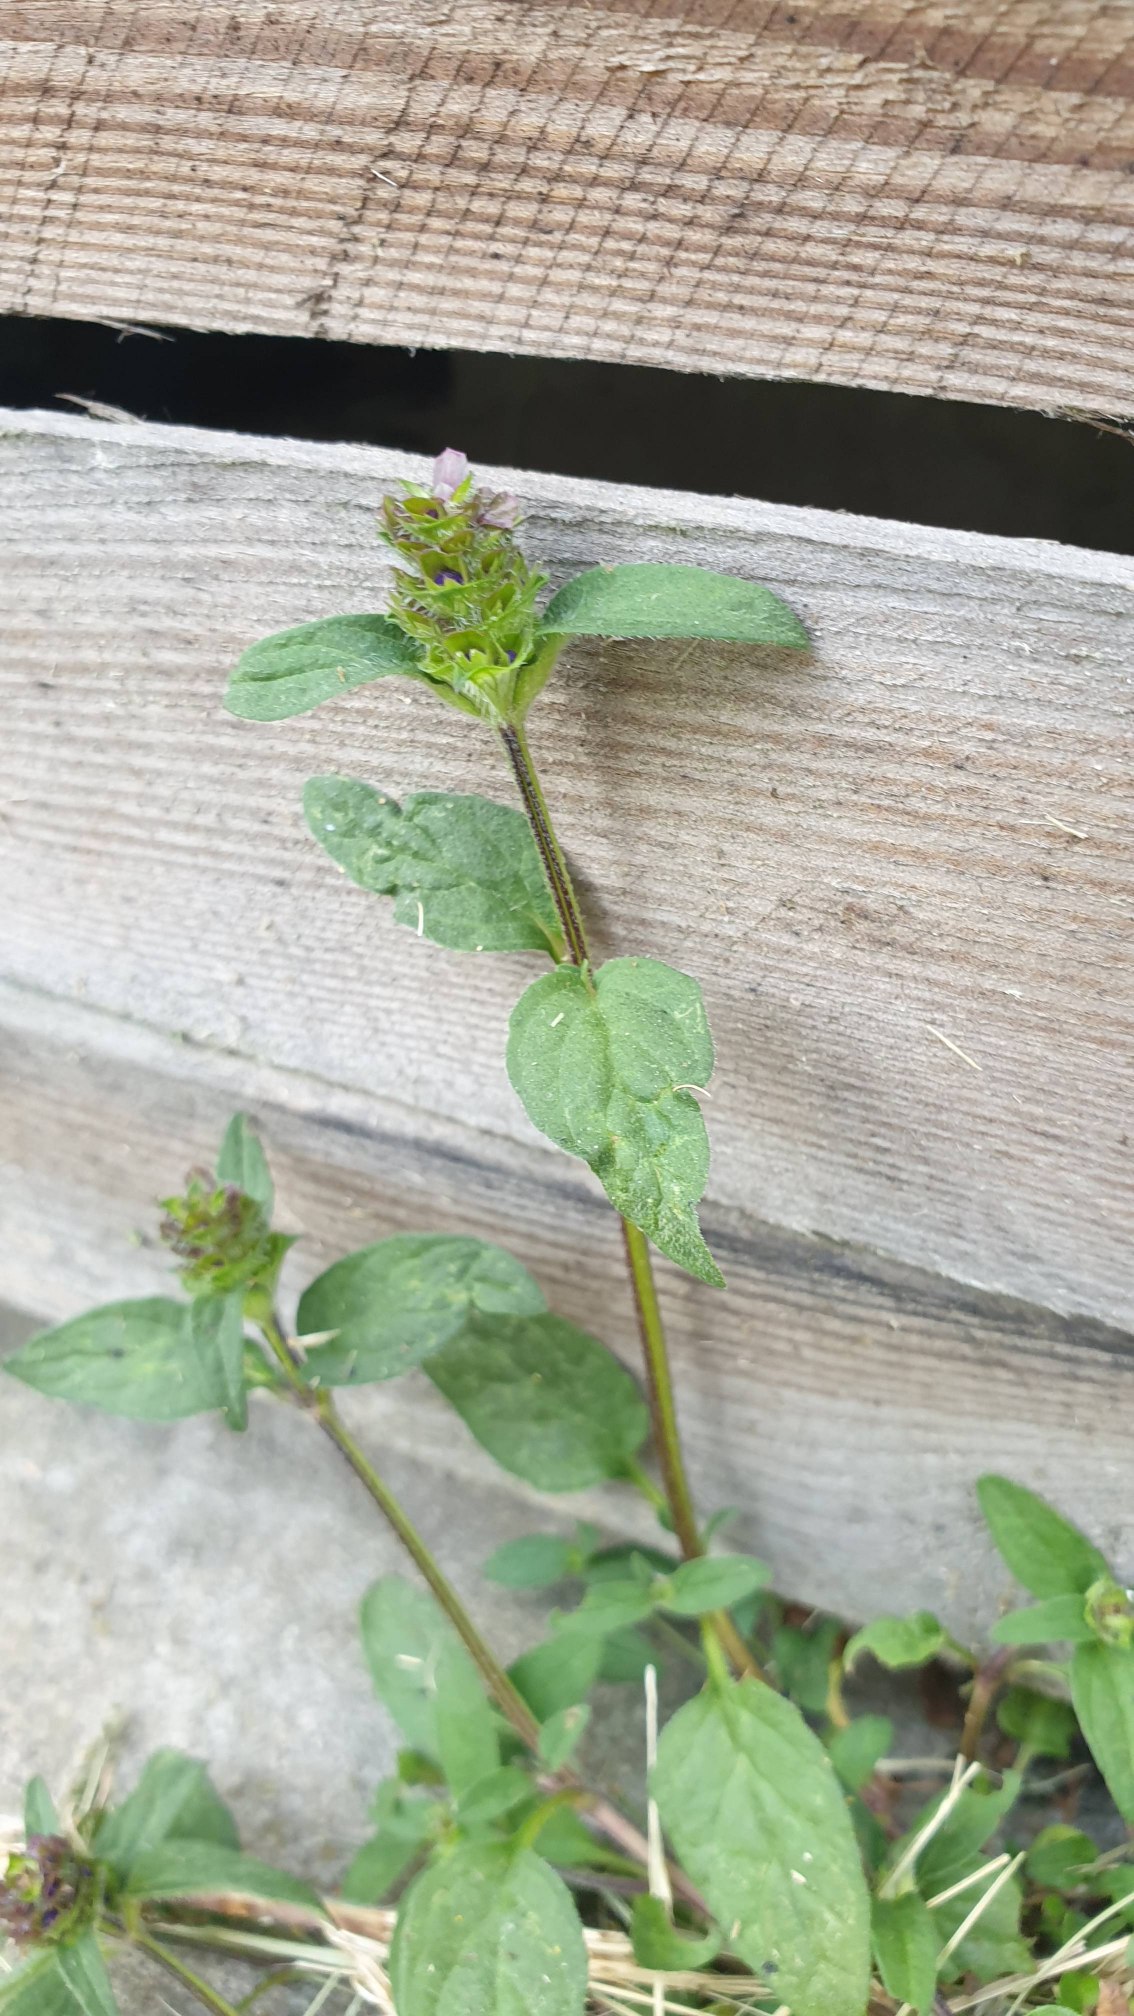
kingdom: Plantae
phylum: Tracheophyta
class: Magnoliopsida
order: Lamiales
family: Lamiaceae
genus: Prunella
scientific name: Prunella vulgaris
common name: Almindelig brunelle
